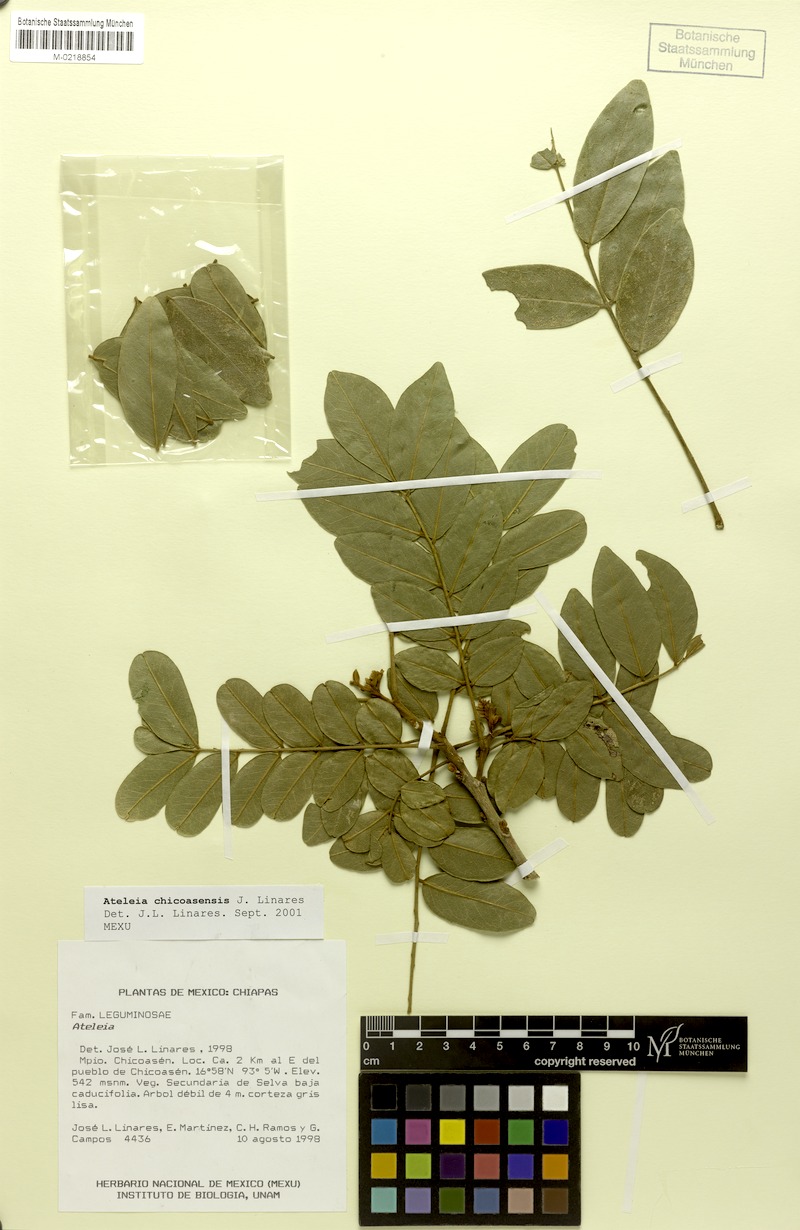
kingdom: Plantae
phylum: Tracheophyta
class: Magnoliopsida
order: Fabales
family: Fabaceae
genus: Ateleia
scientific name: Ateleia chicoasensis
